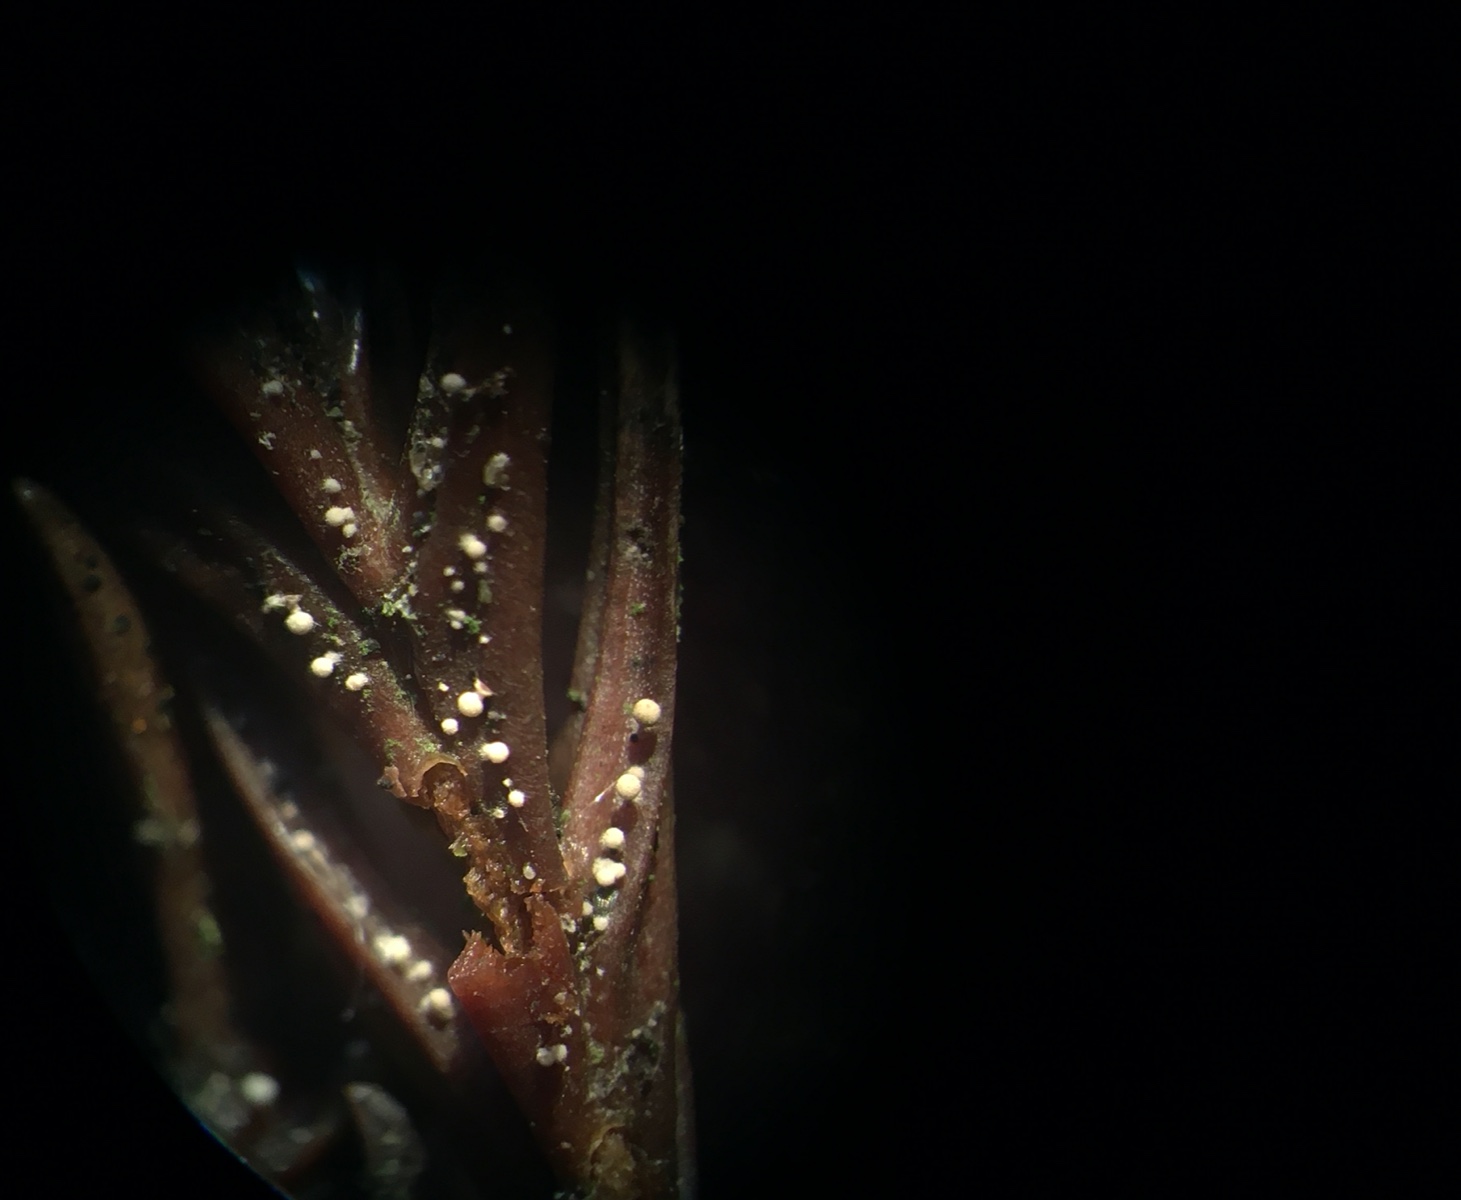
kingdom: Fungi
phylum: Basidiomycota
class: Agaricomycetes
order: Agaricales
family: Physalacriaceae
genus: Physalacria
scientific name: Physalacria cryptomeriae
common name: japangran-boldkølle
